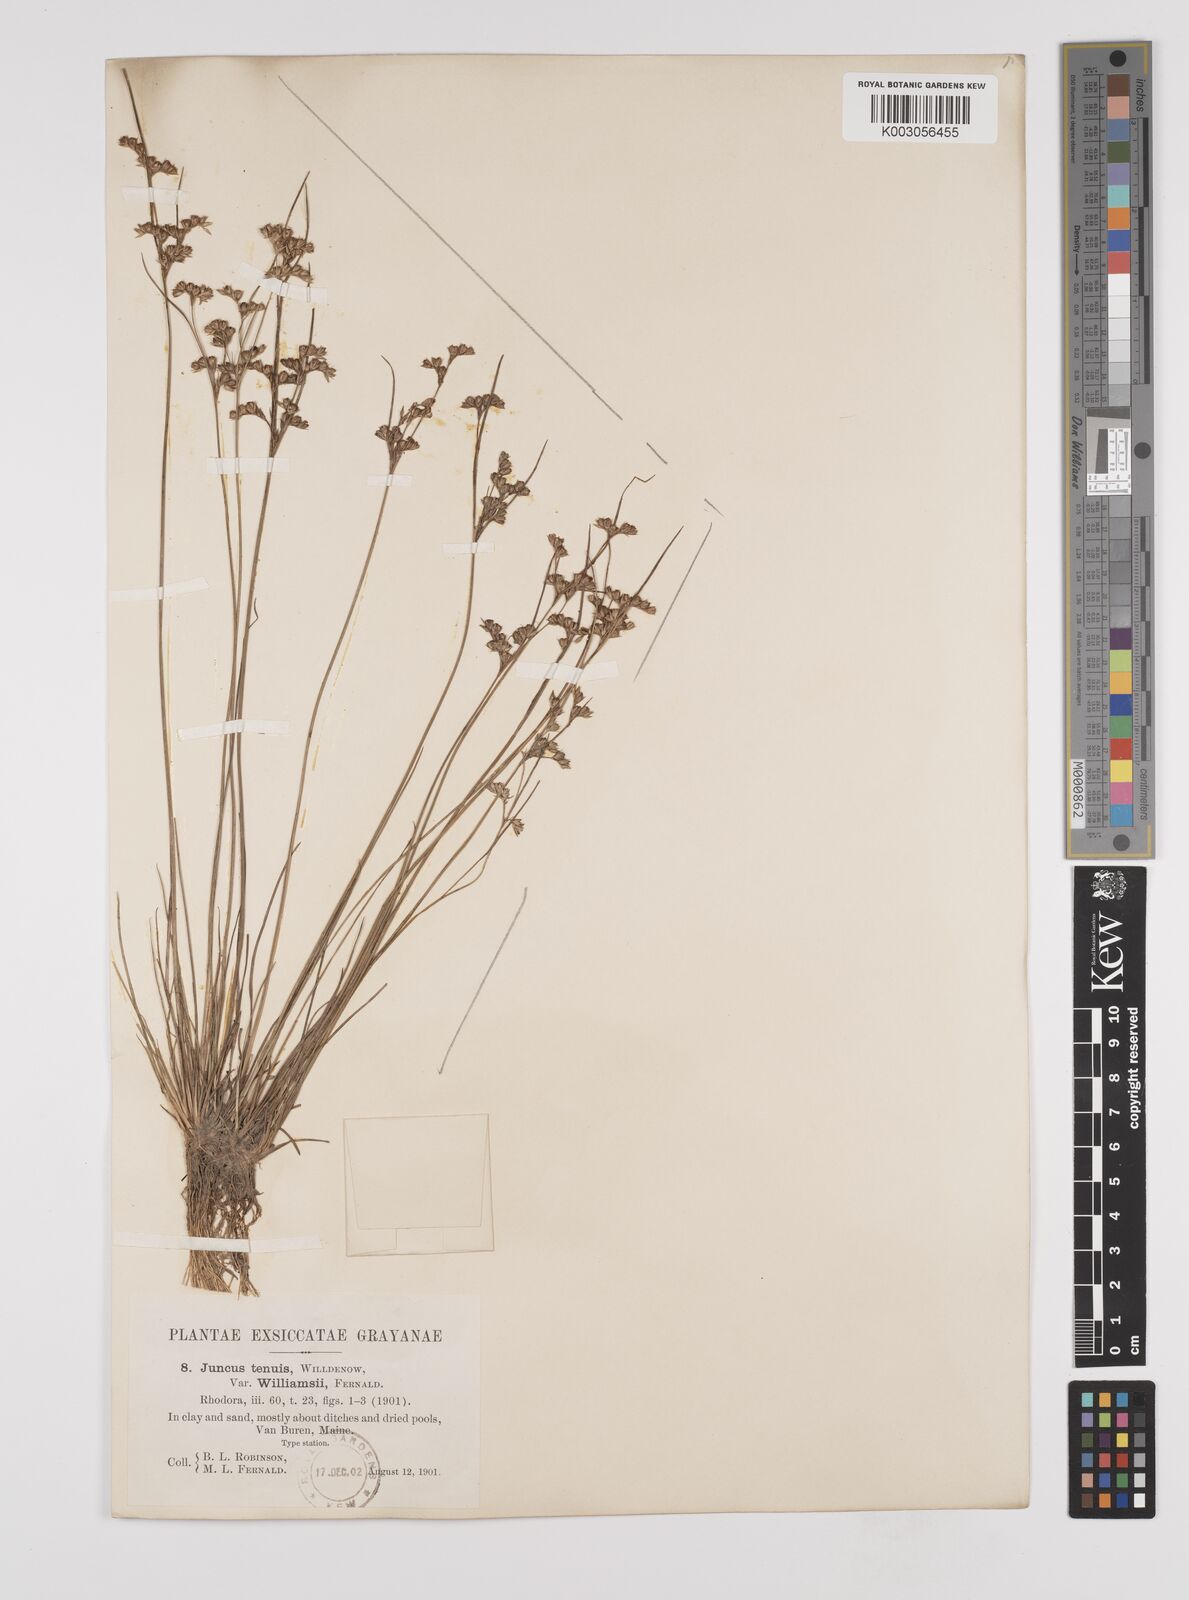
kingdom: Plantae
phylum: Tracheophyta
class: Liliopsida
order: Poales
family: Juncaceae
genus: Juncus
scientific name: Juncus dudleyi
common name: Dudley's rush
